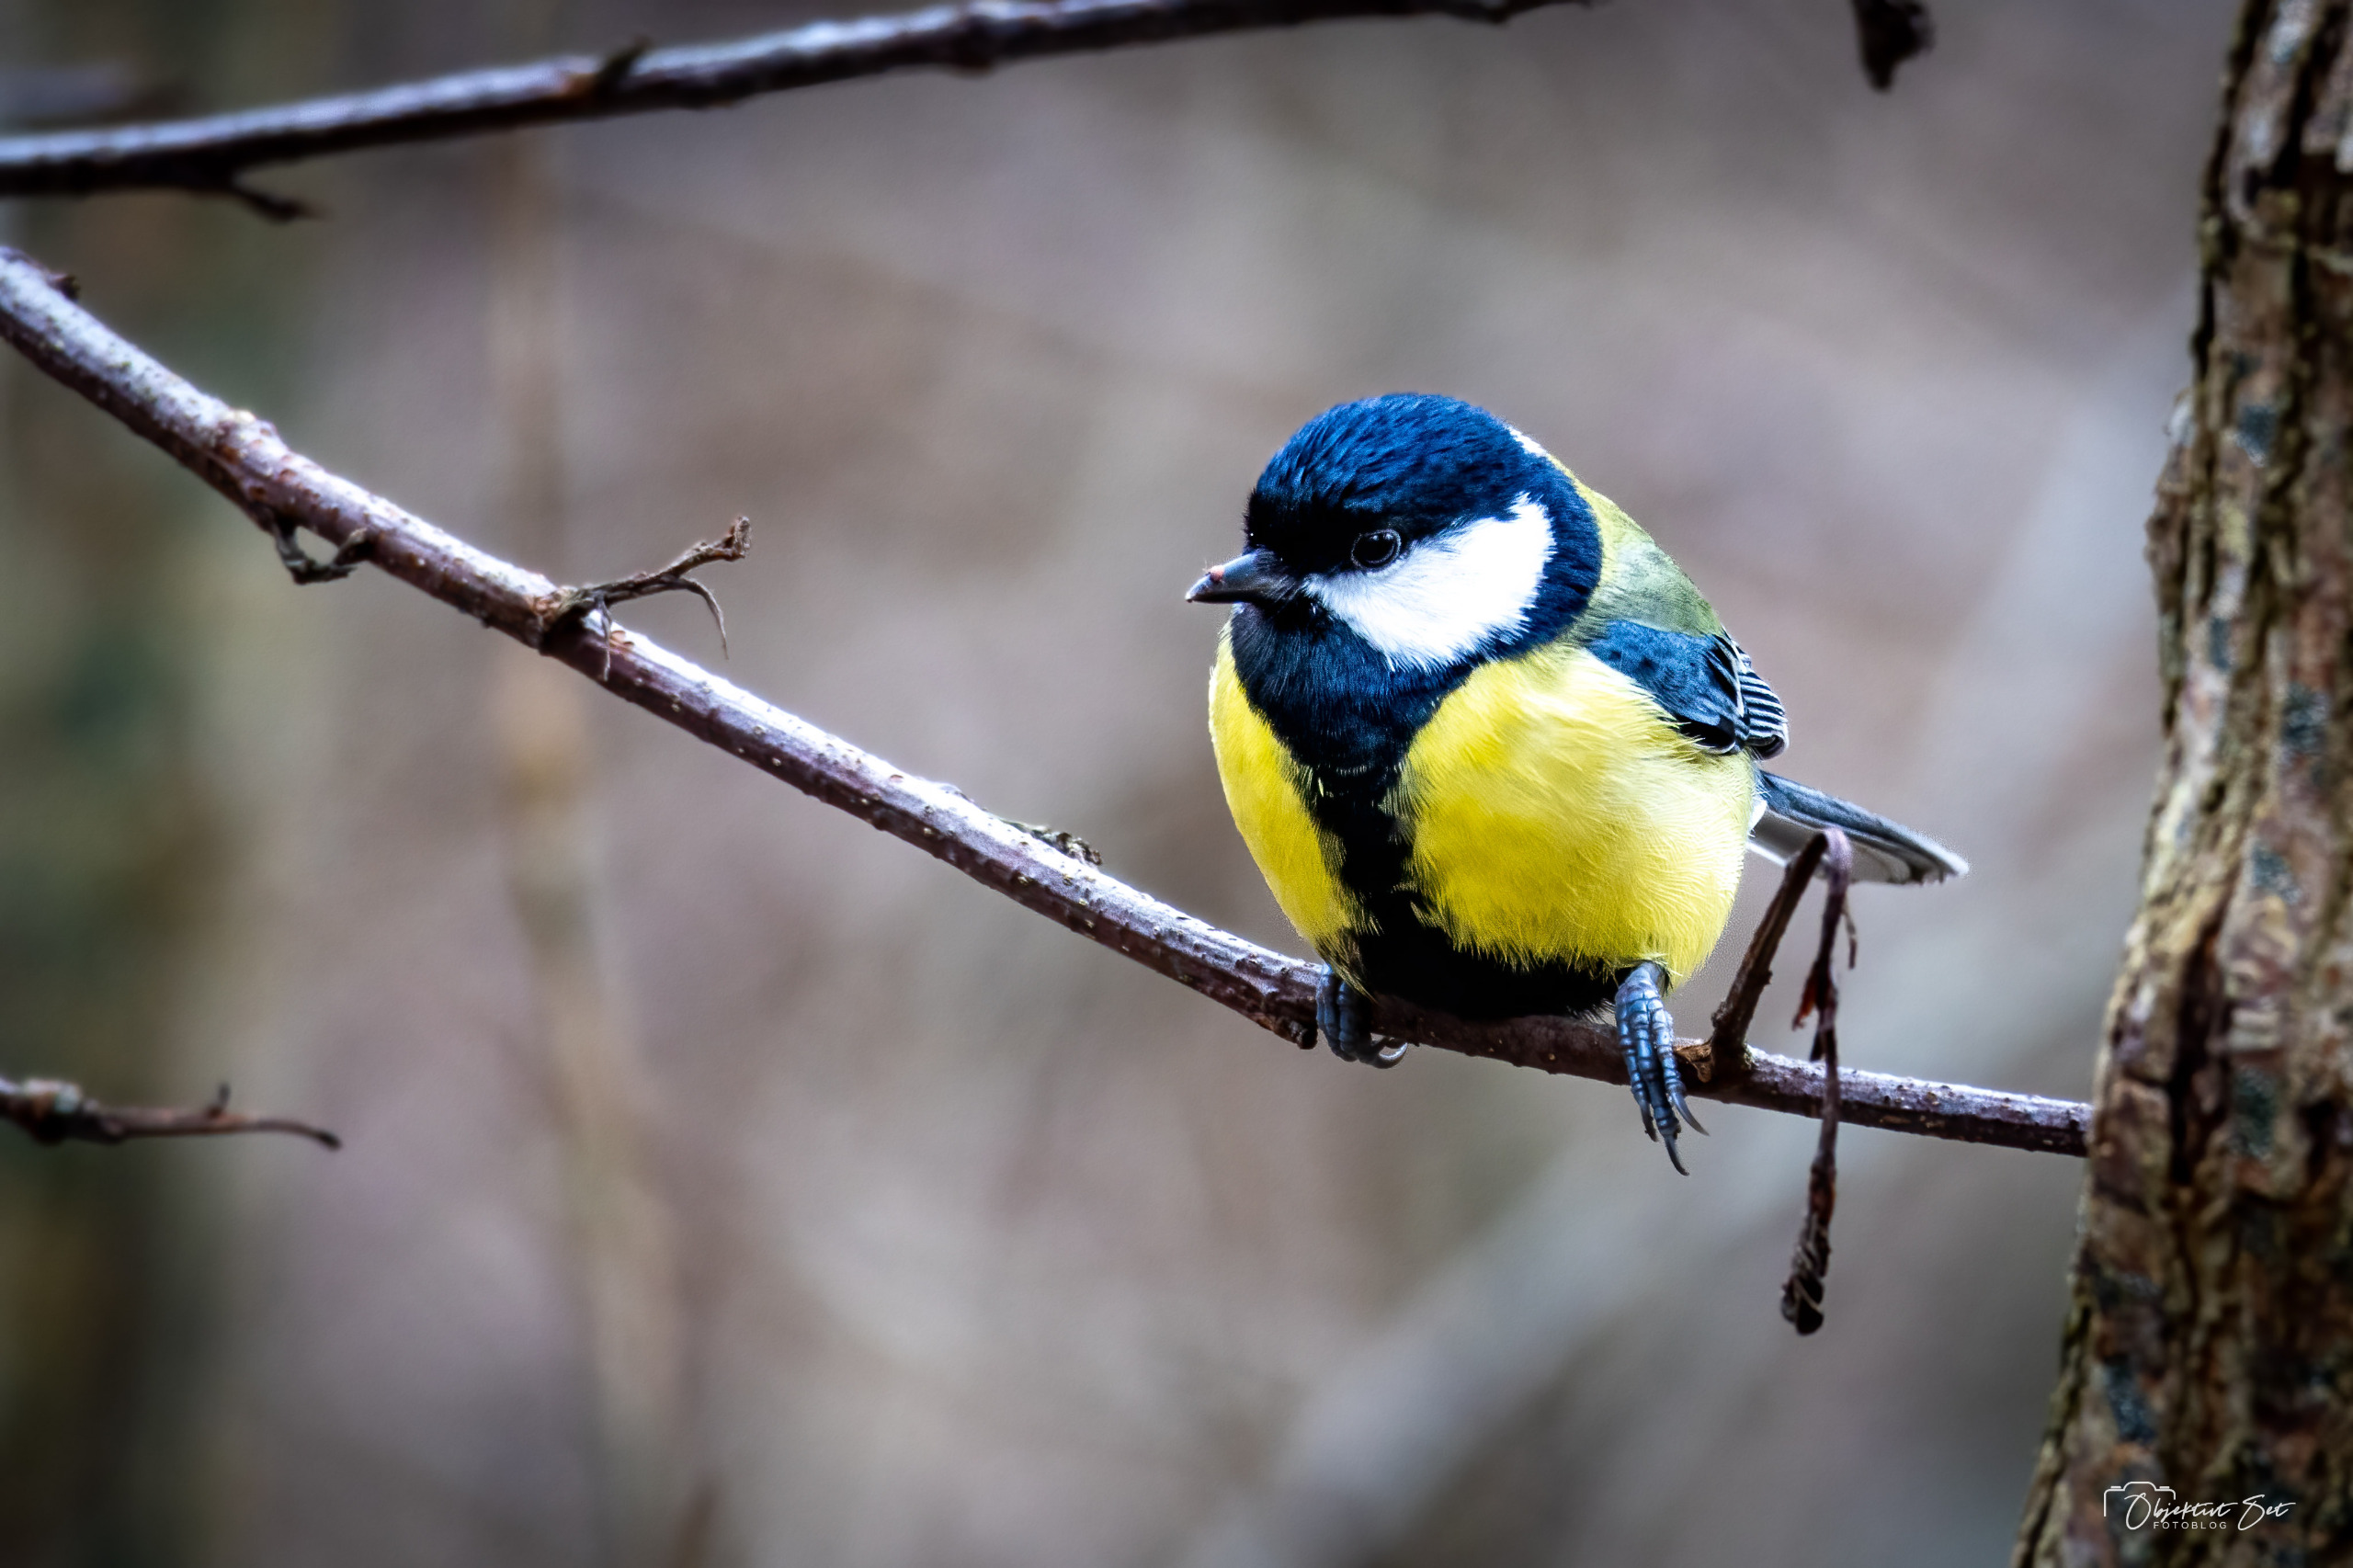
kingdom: Animalia
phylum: Chordata
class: Aves
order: Passeriformes
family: Paridae
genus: Parus
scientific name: Parus major
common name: Musvit
